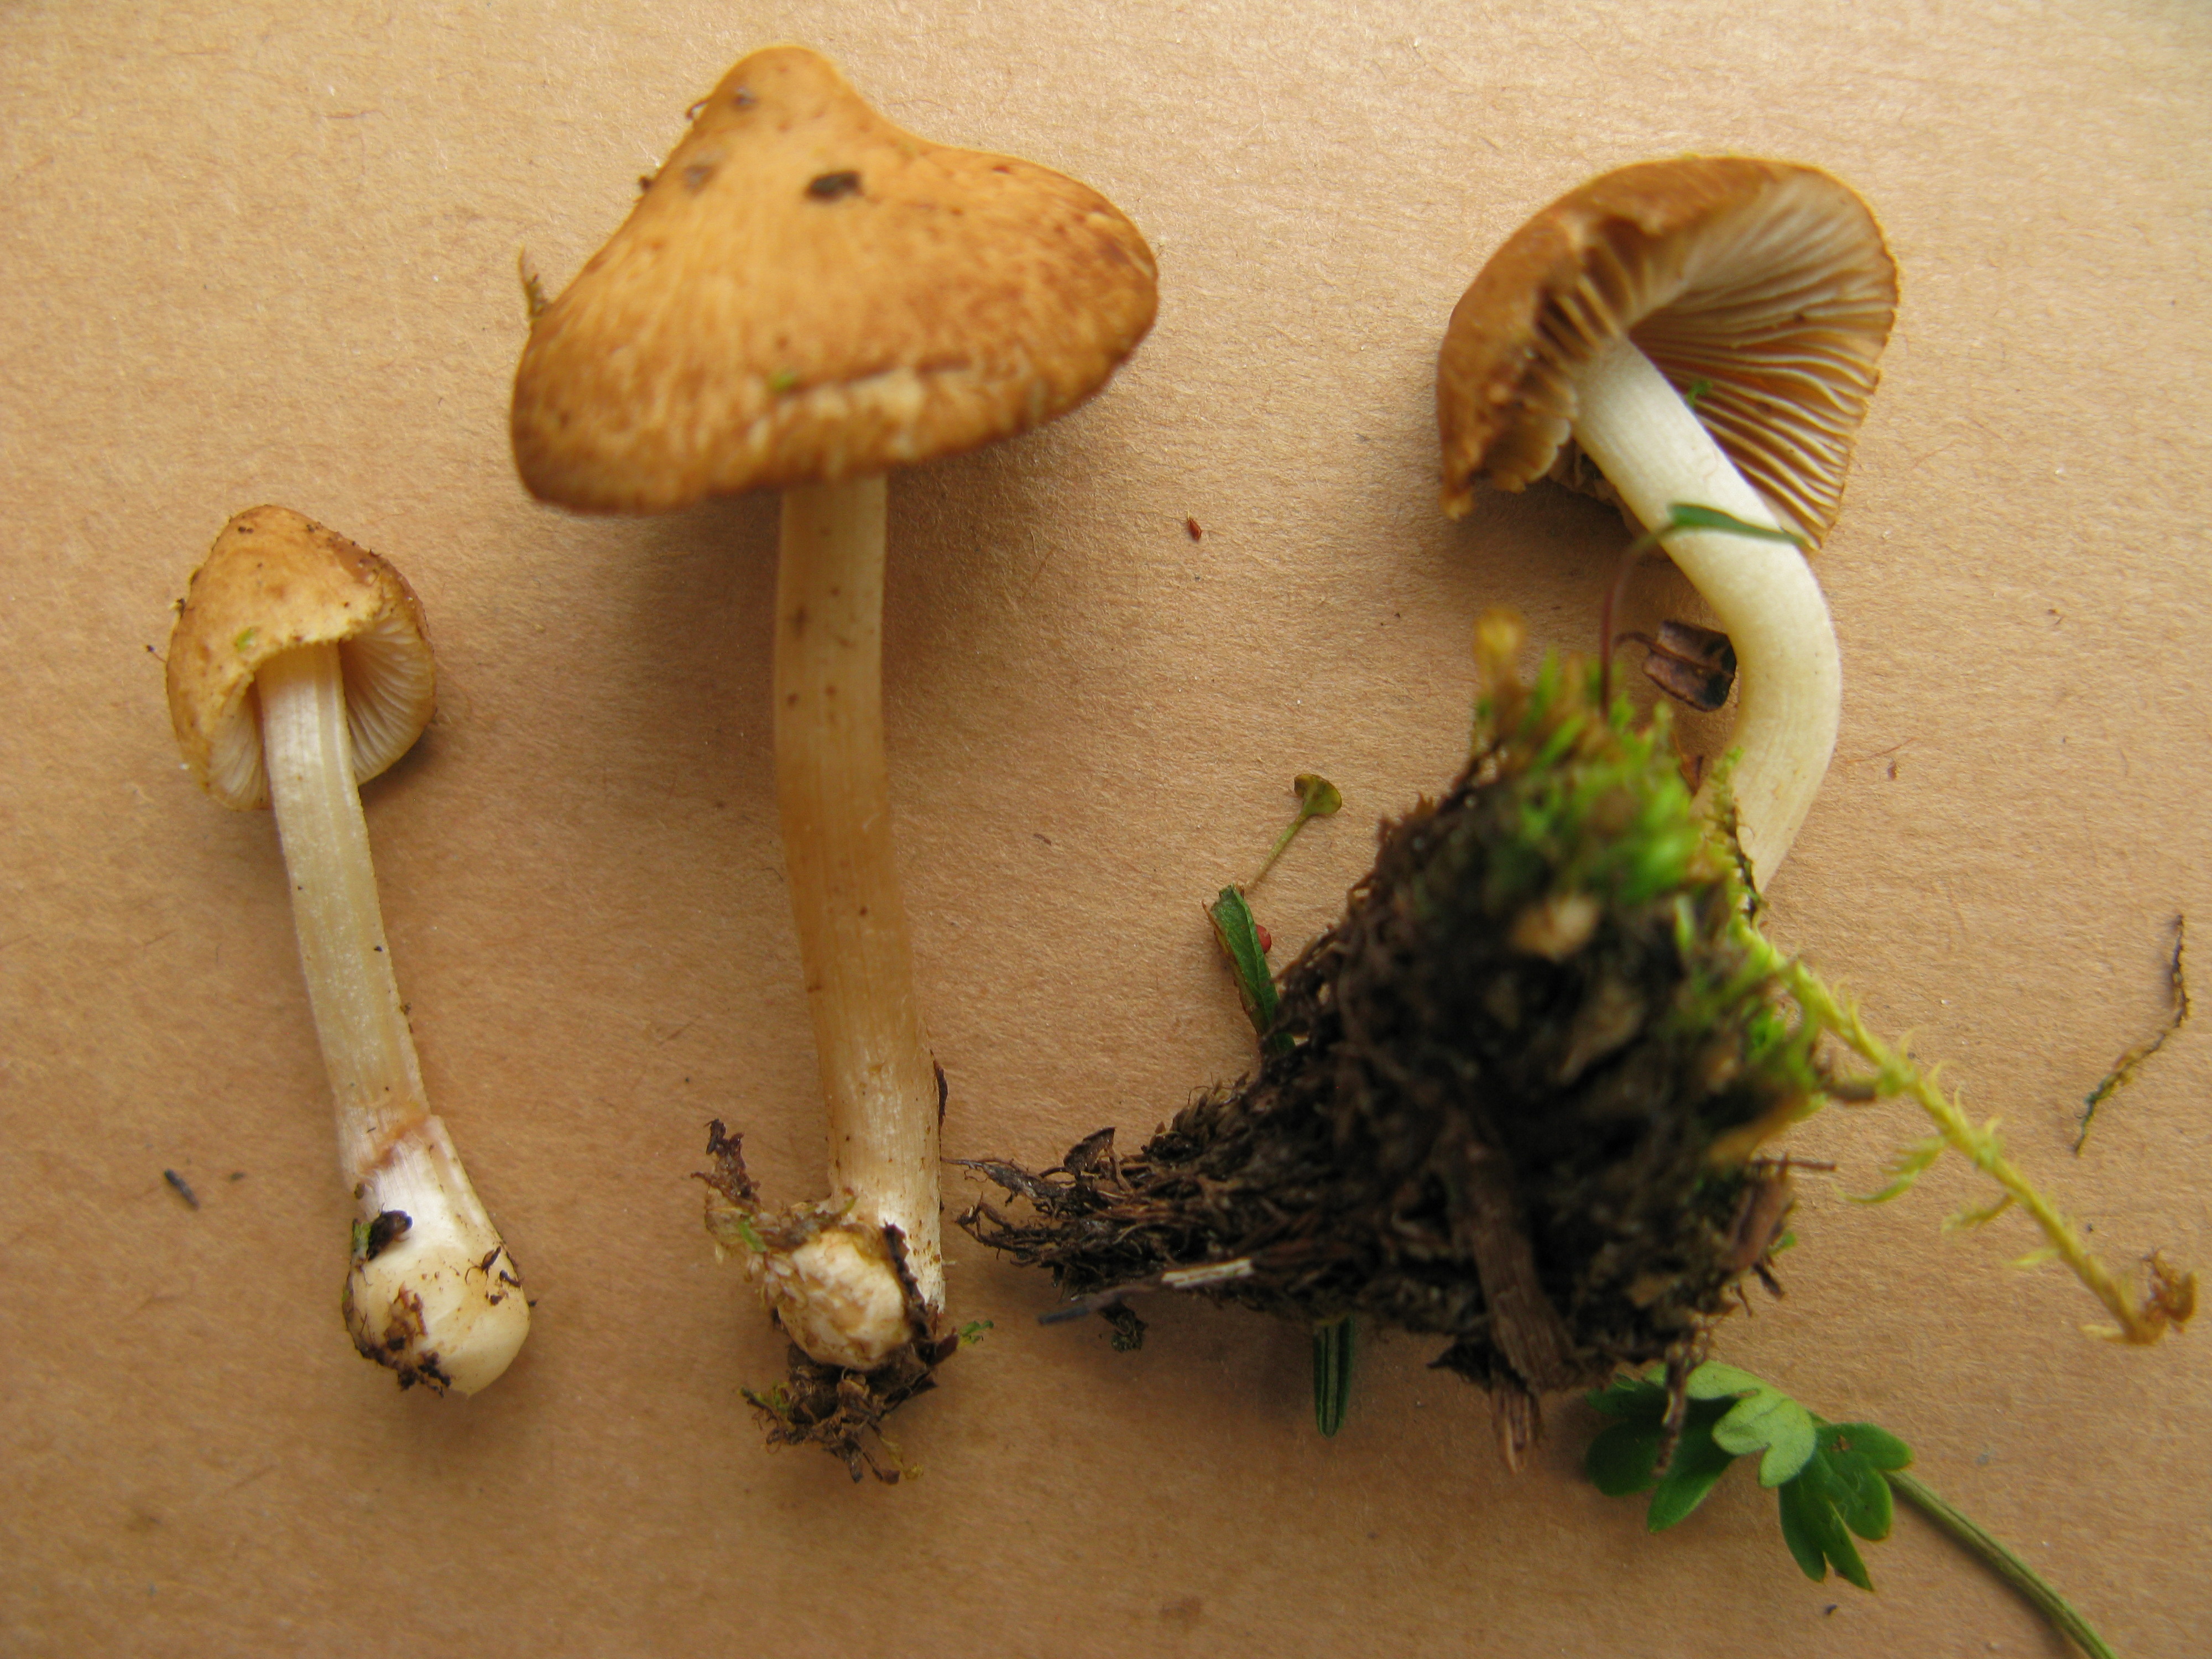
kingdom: Fungi
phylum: Basidiomycota
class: Agaricomycetes
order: Agaricales
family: Inocybaceae
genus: Inocybe
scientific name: Inocybe
